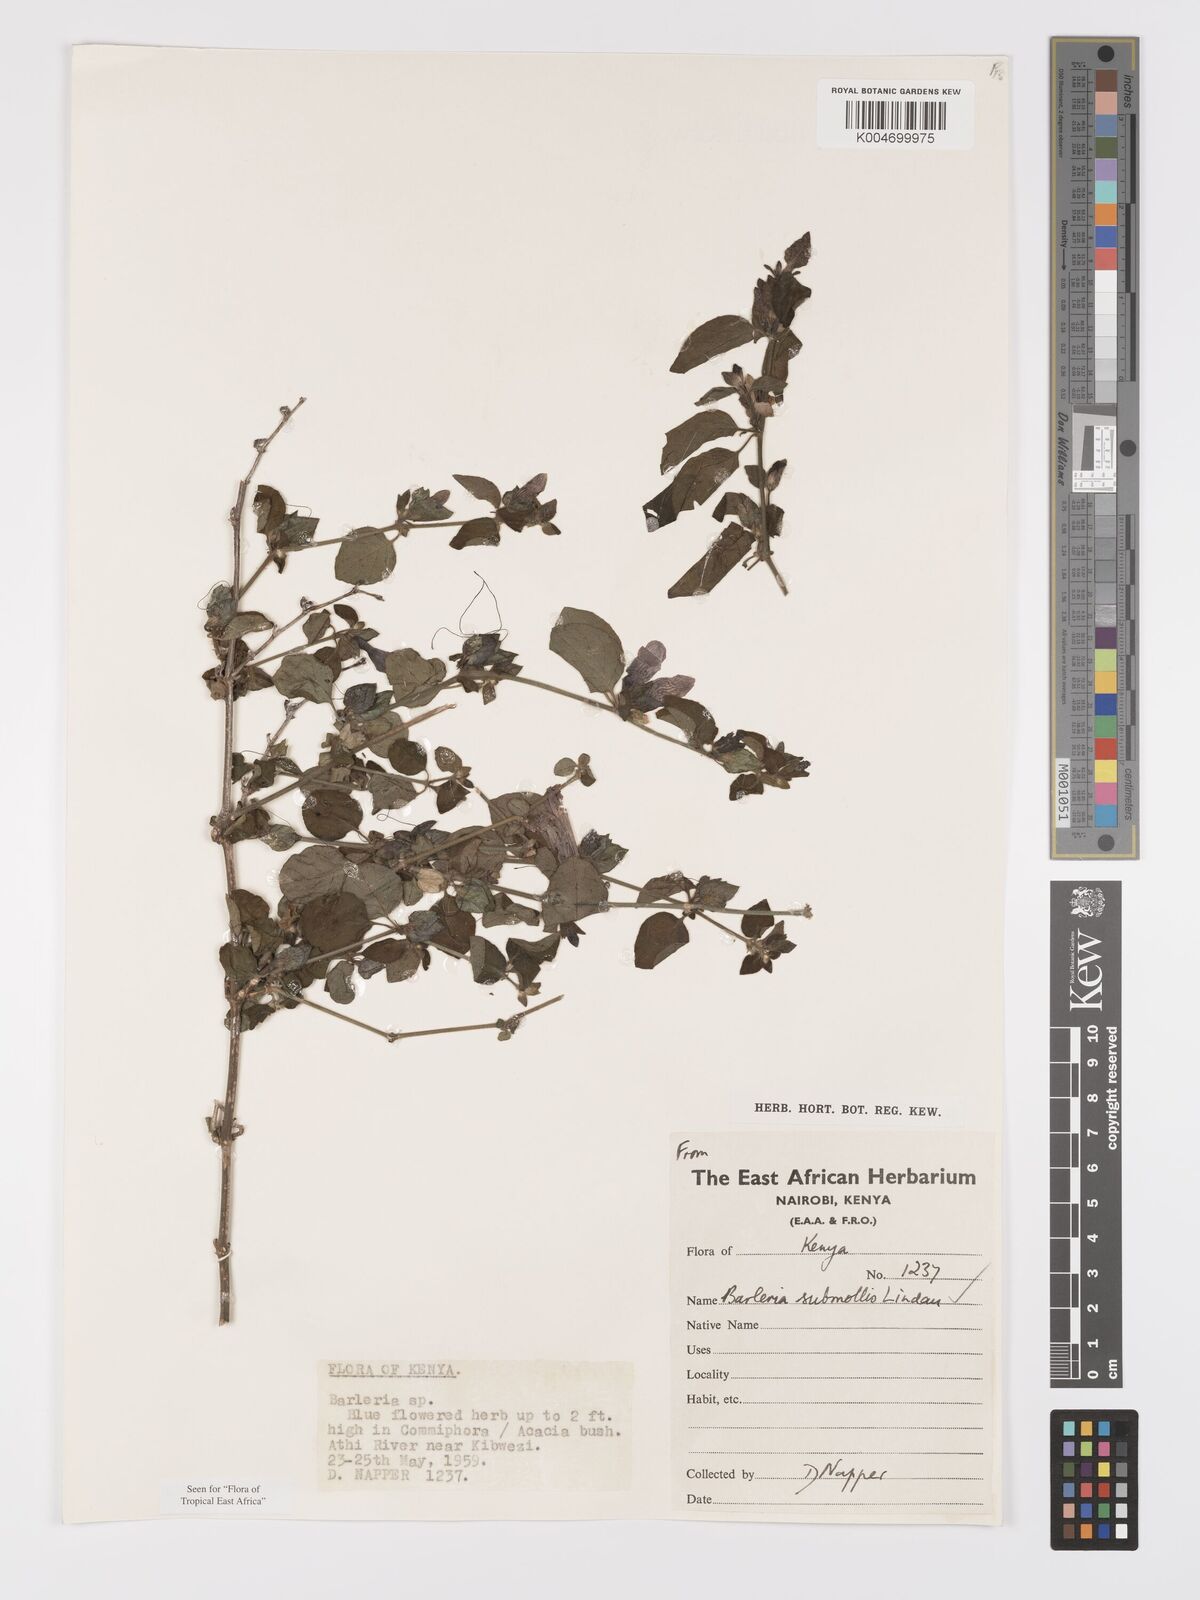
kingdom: Plantae
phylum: Tracheophyta
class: Magnoliopsida
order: Lamiales
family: Acanthaceae
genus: Barleria
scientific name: Barleria submollis
